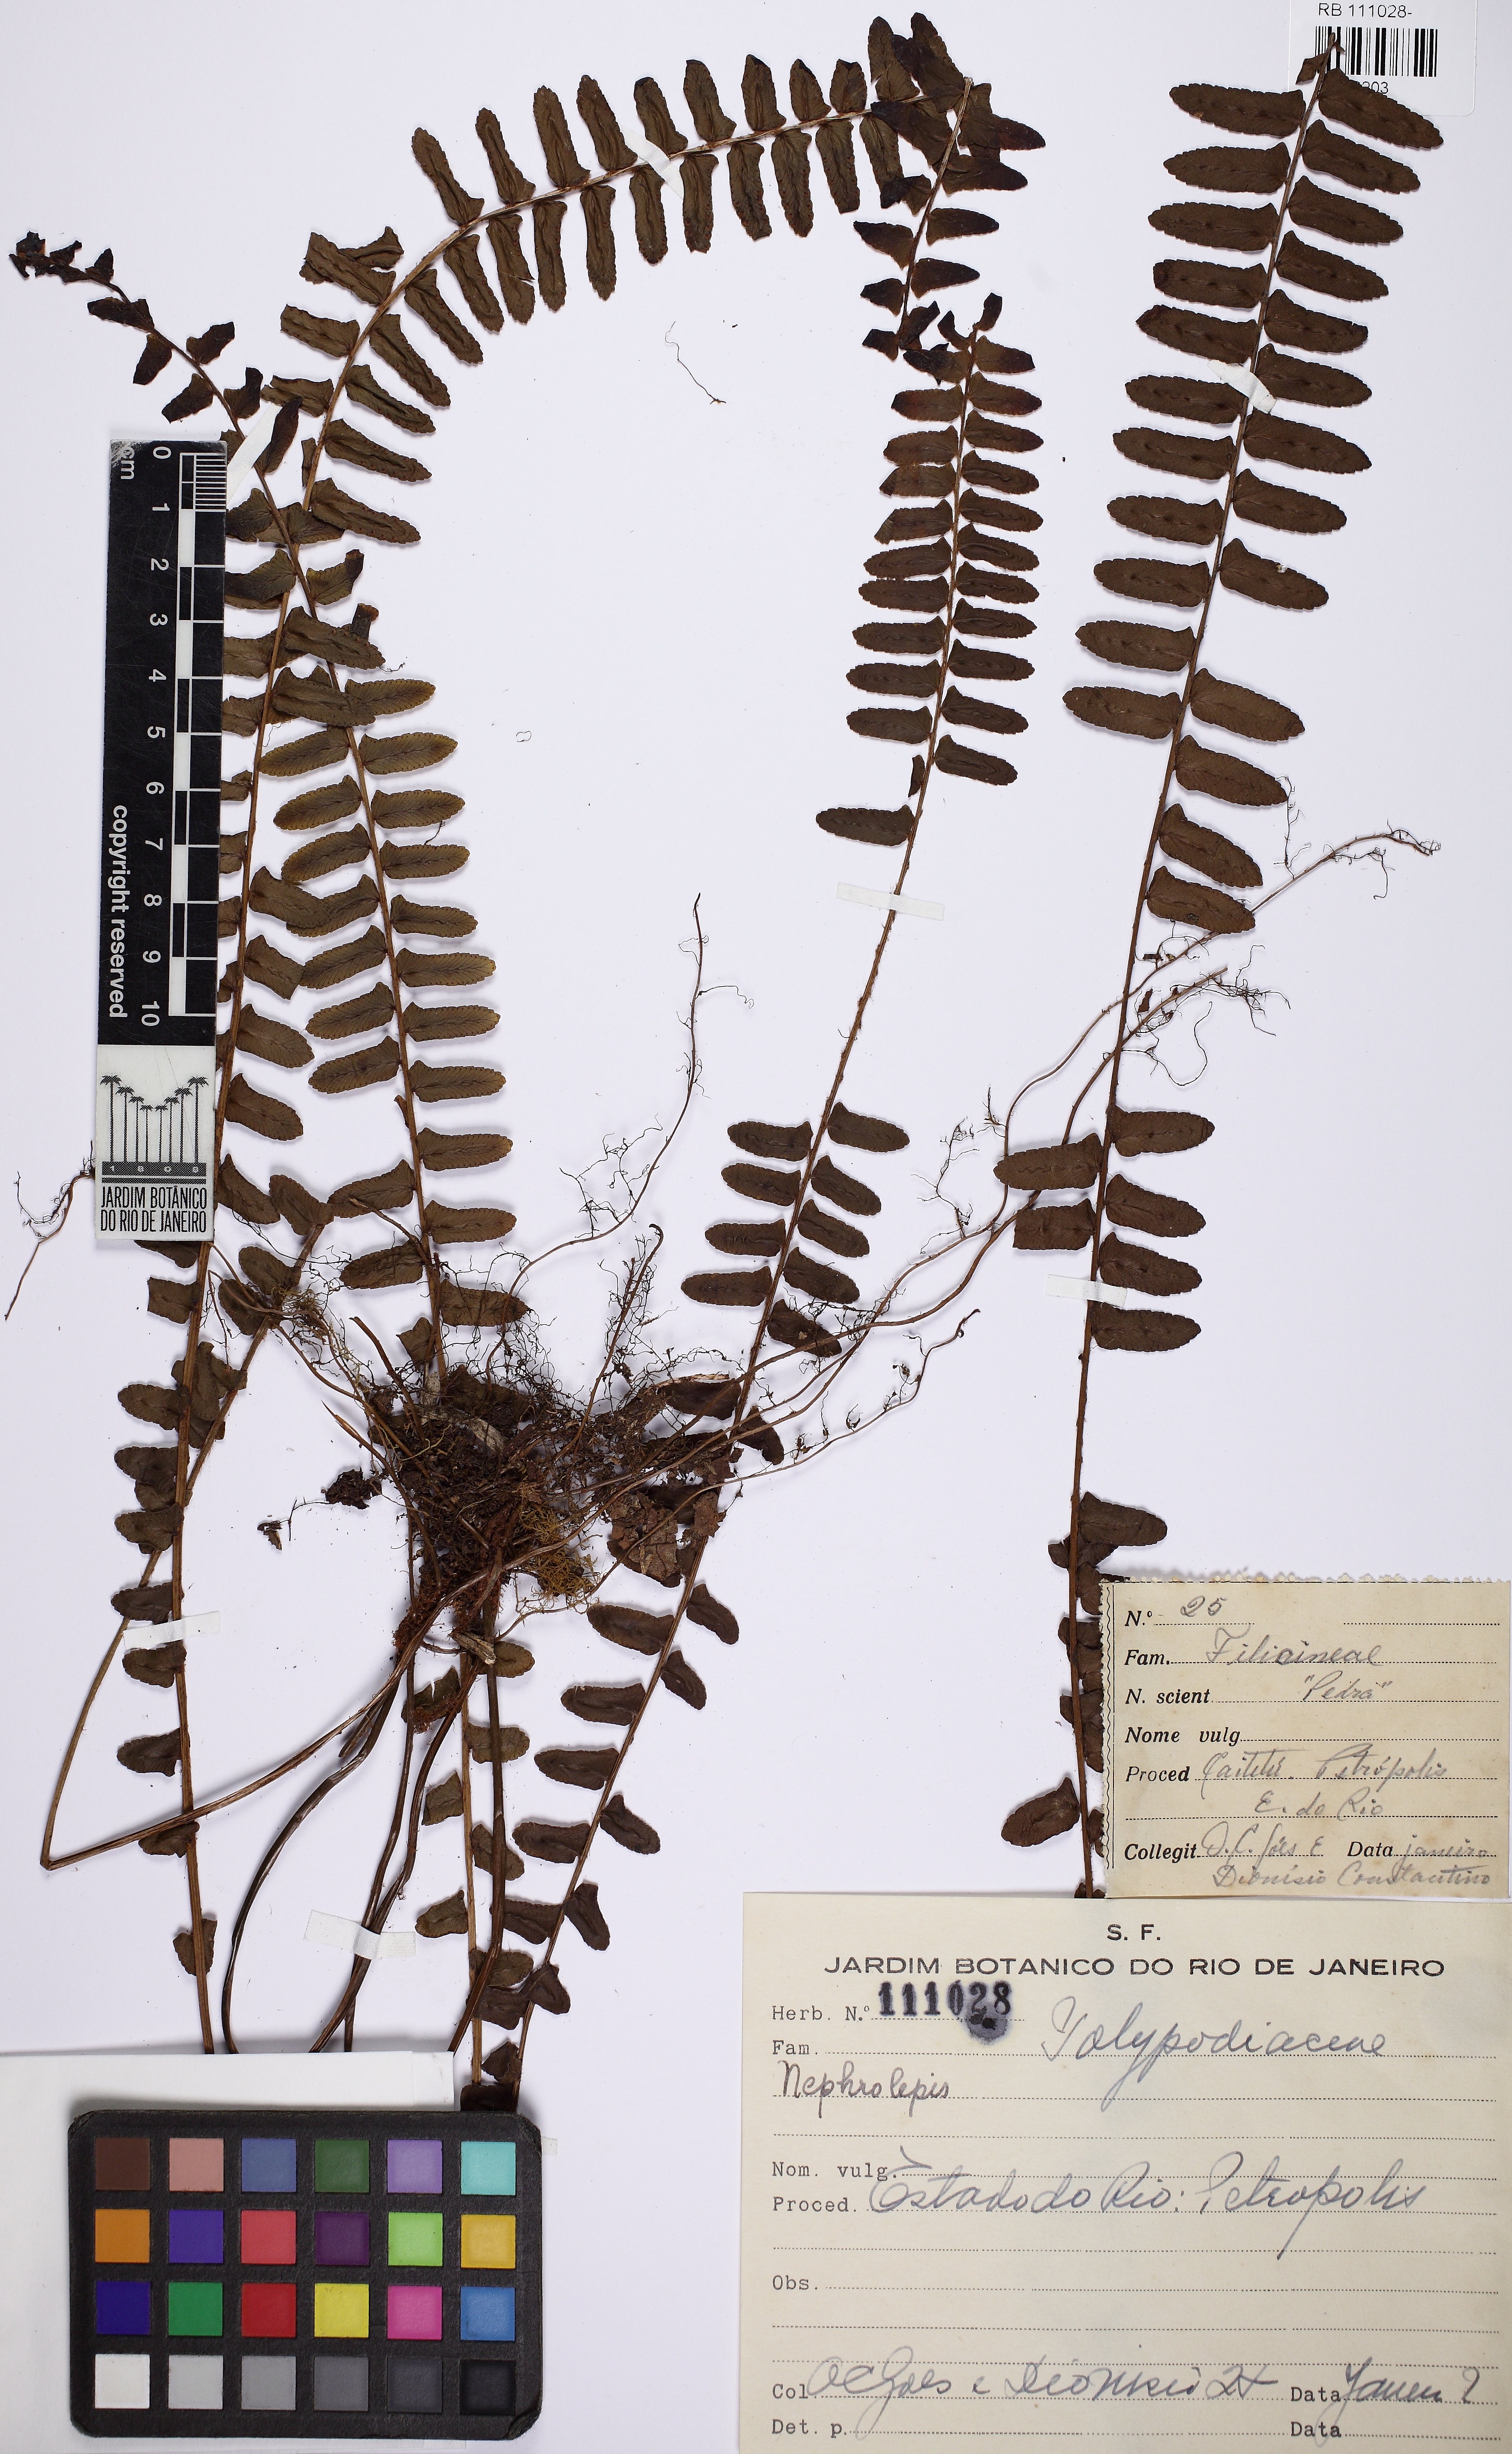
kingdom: Plantae
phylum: Tracheophyta
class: Polypodiopsida
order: Polypodiales
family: Nephrolepidaceae
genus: Nephrolepis
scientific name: Nephrolepis
